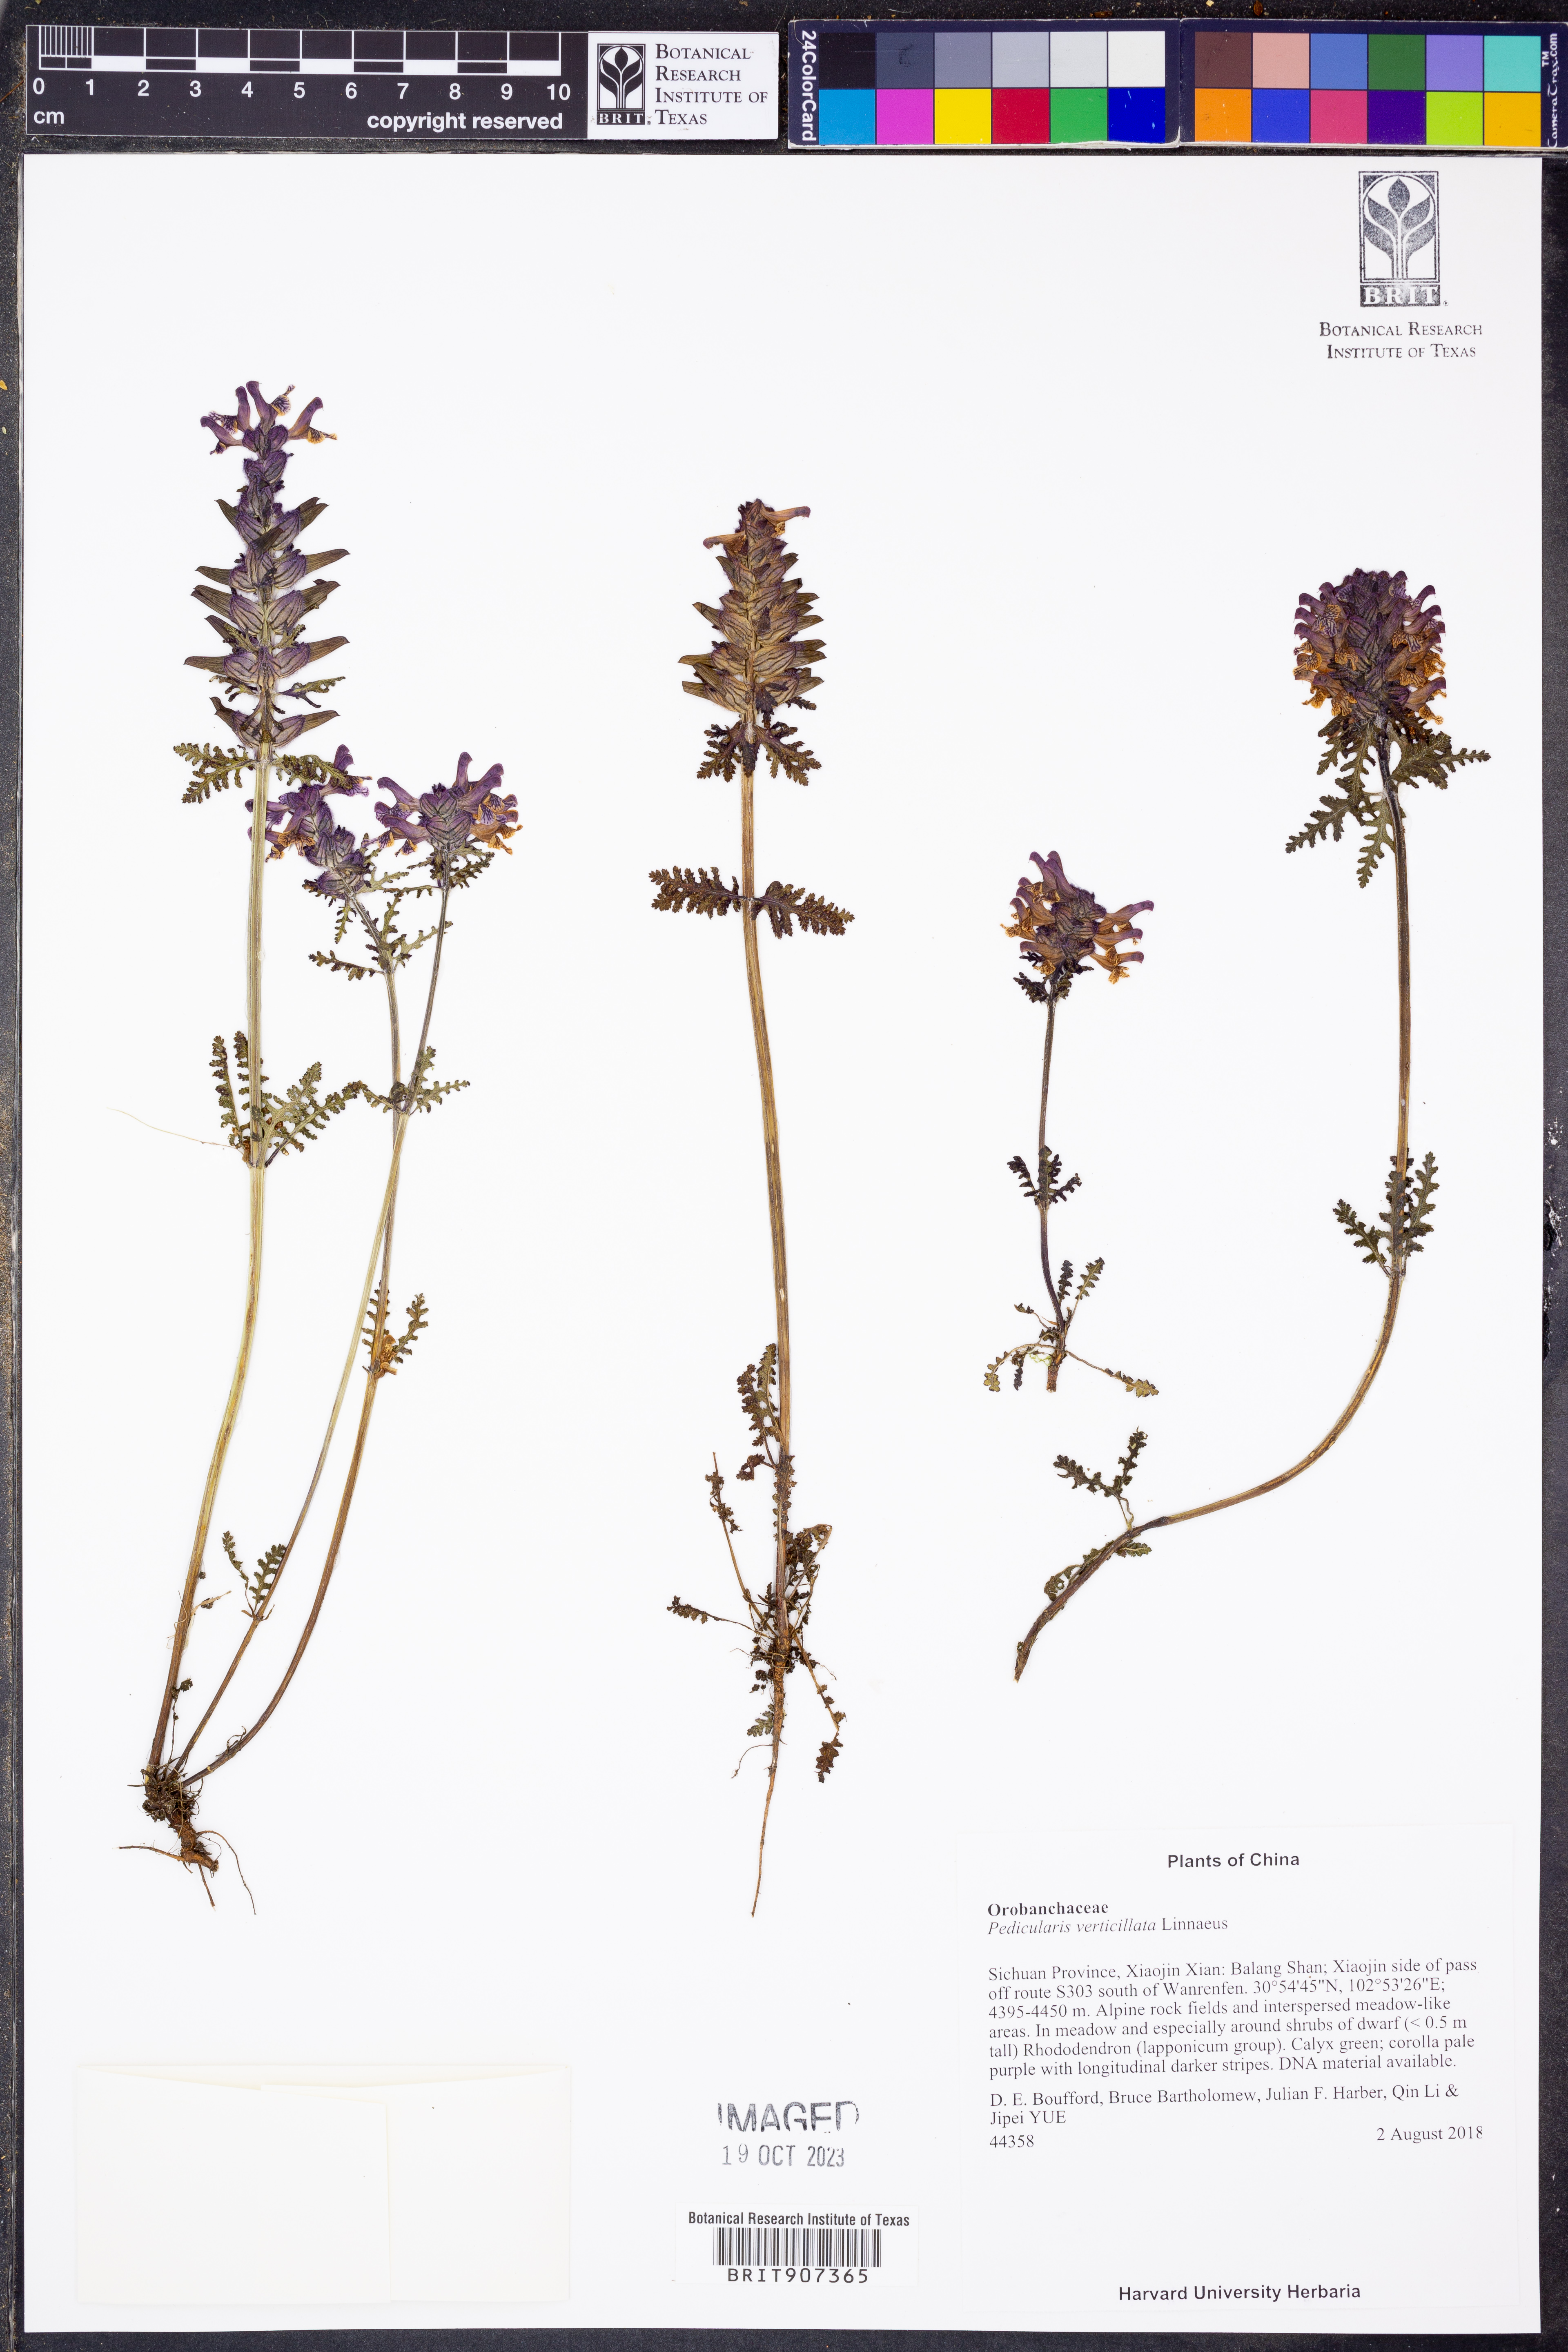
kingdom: Plantae
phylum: Tracheophyta
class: Magnoliopsida
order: Lamiales
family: Orobanchaceae
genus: Pedicularis
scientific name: Pedicularis verticillata
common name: Whorled lousewort
